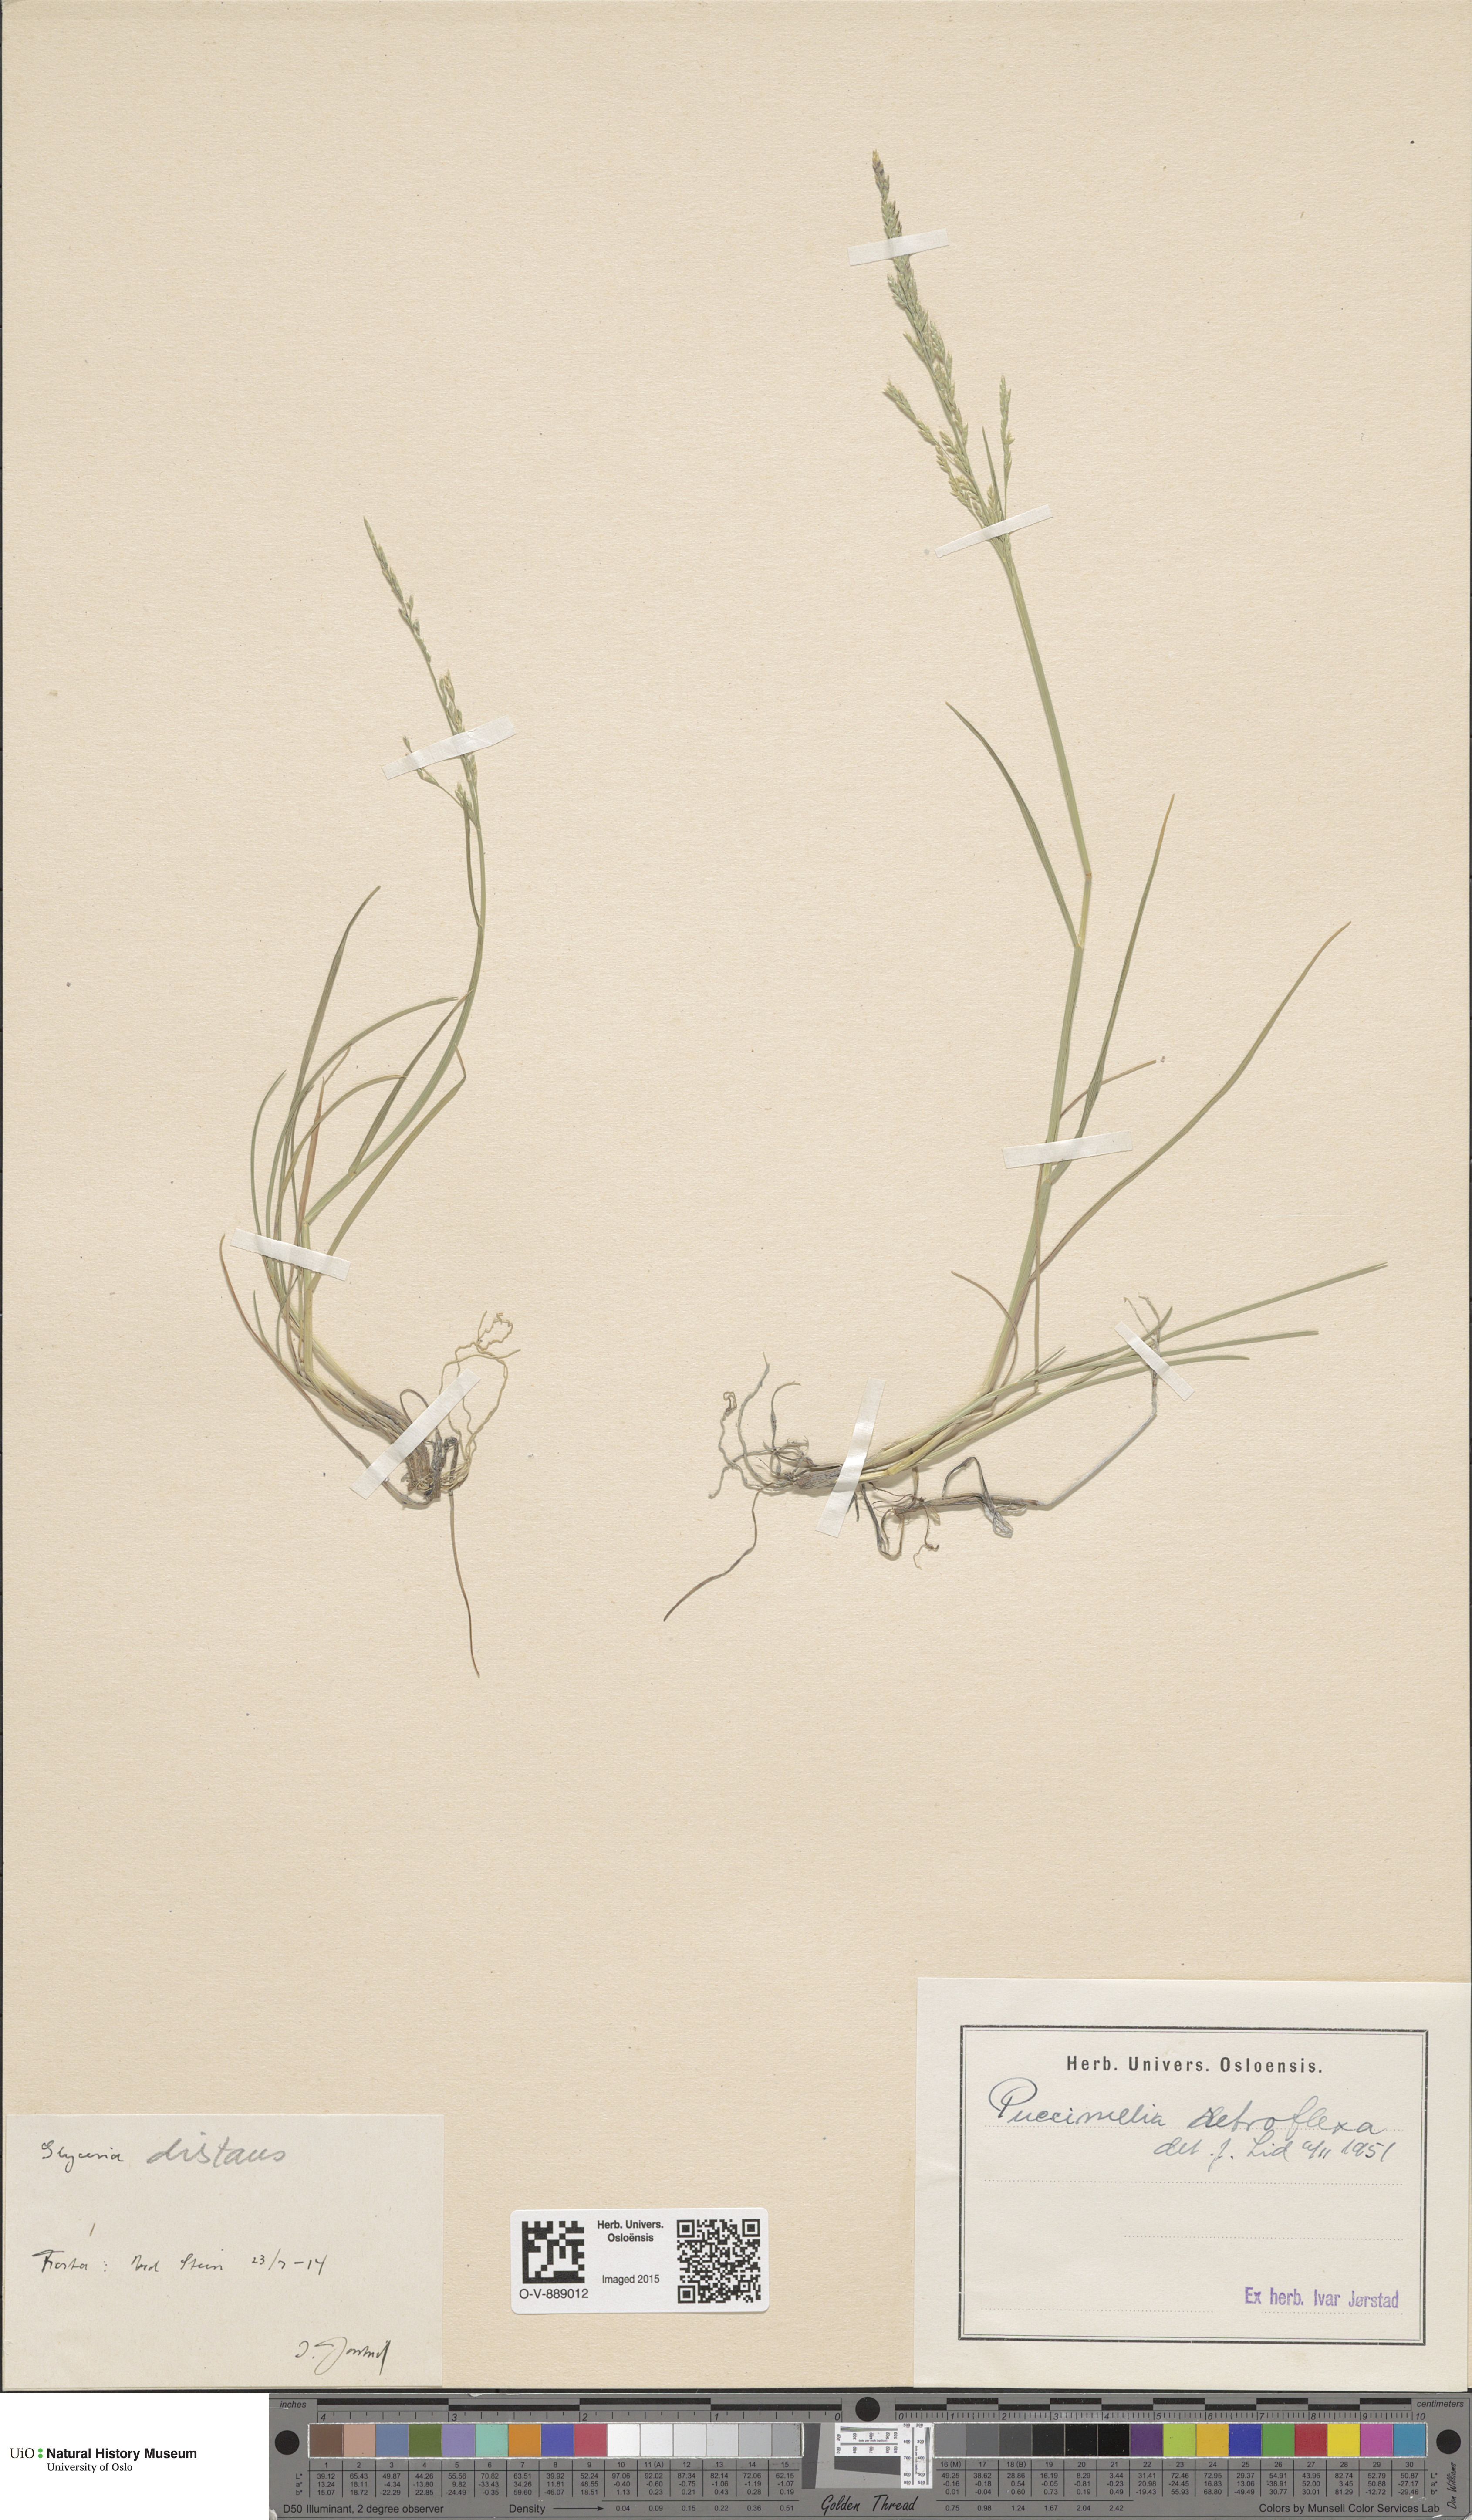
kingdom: Plantae
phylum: Tracheophyta
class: Liliopsida
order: Poales
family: Poaceae
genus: Puccinellia
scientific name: Puccinellia distans
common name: Weeping alkaligrass
